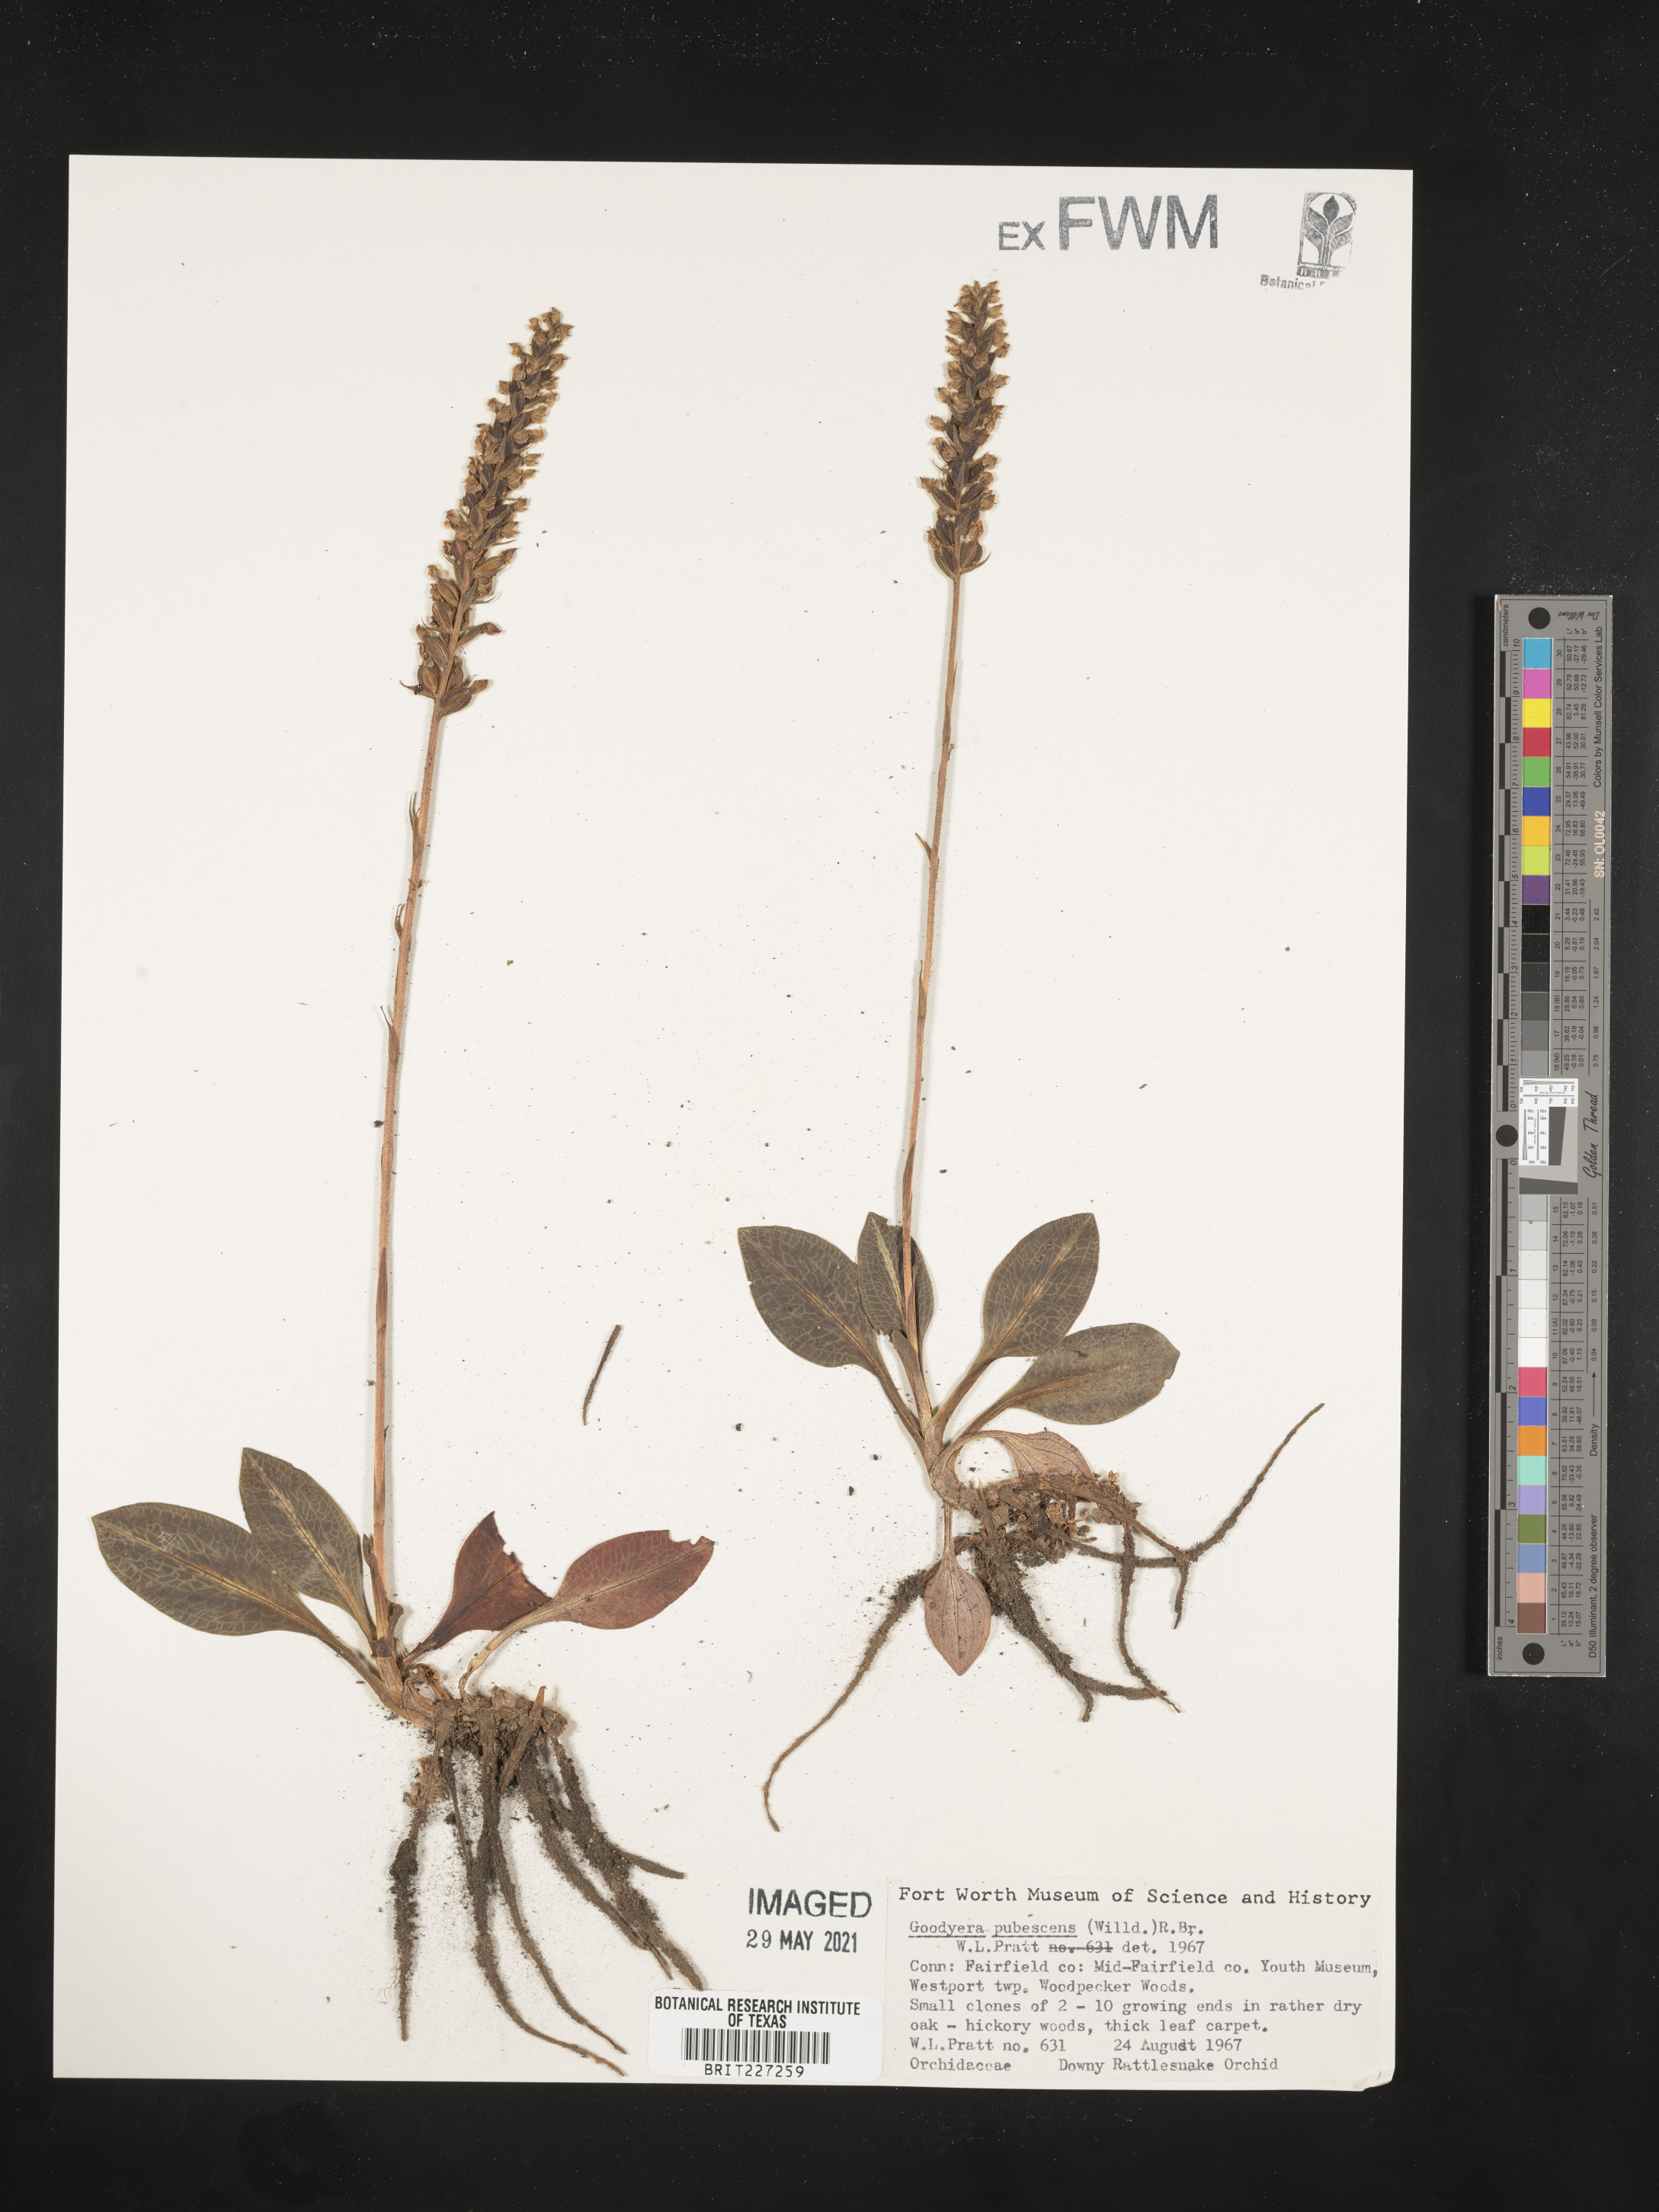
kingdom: Plantae
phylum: Tracheophyta
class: Liliopsida
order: Asparagales
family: Orchidaceae
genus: Goodyera
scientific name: Goodyera pubescens
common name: Downy rattlesnake-plantain
